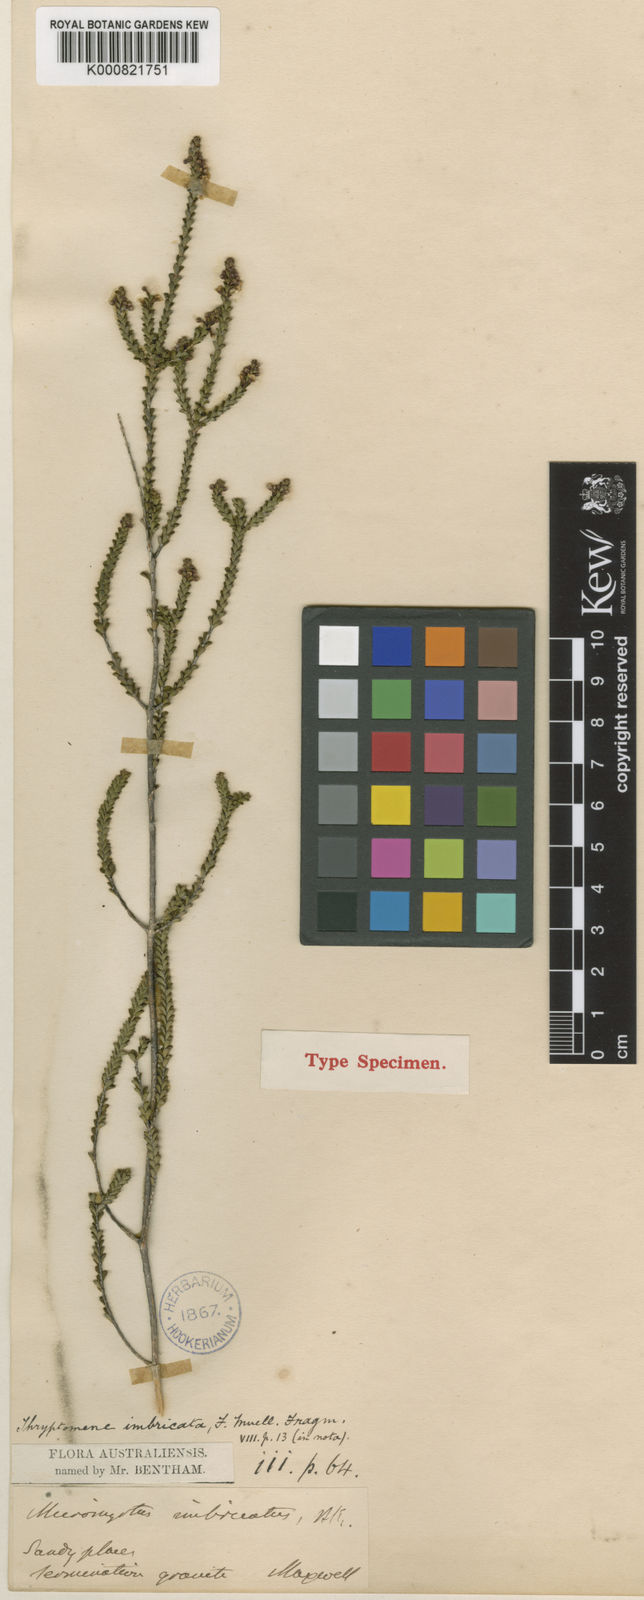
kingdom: Plantae
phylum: Tracheophyta
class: Magnoliopsida
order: Myrtales
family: Myrtaceae
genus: Micromyrtus
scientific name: Micromyrtus imbricata
